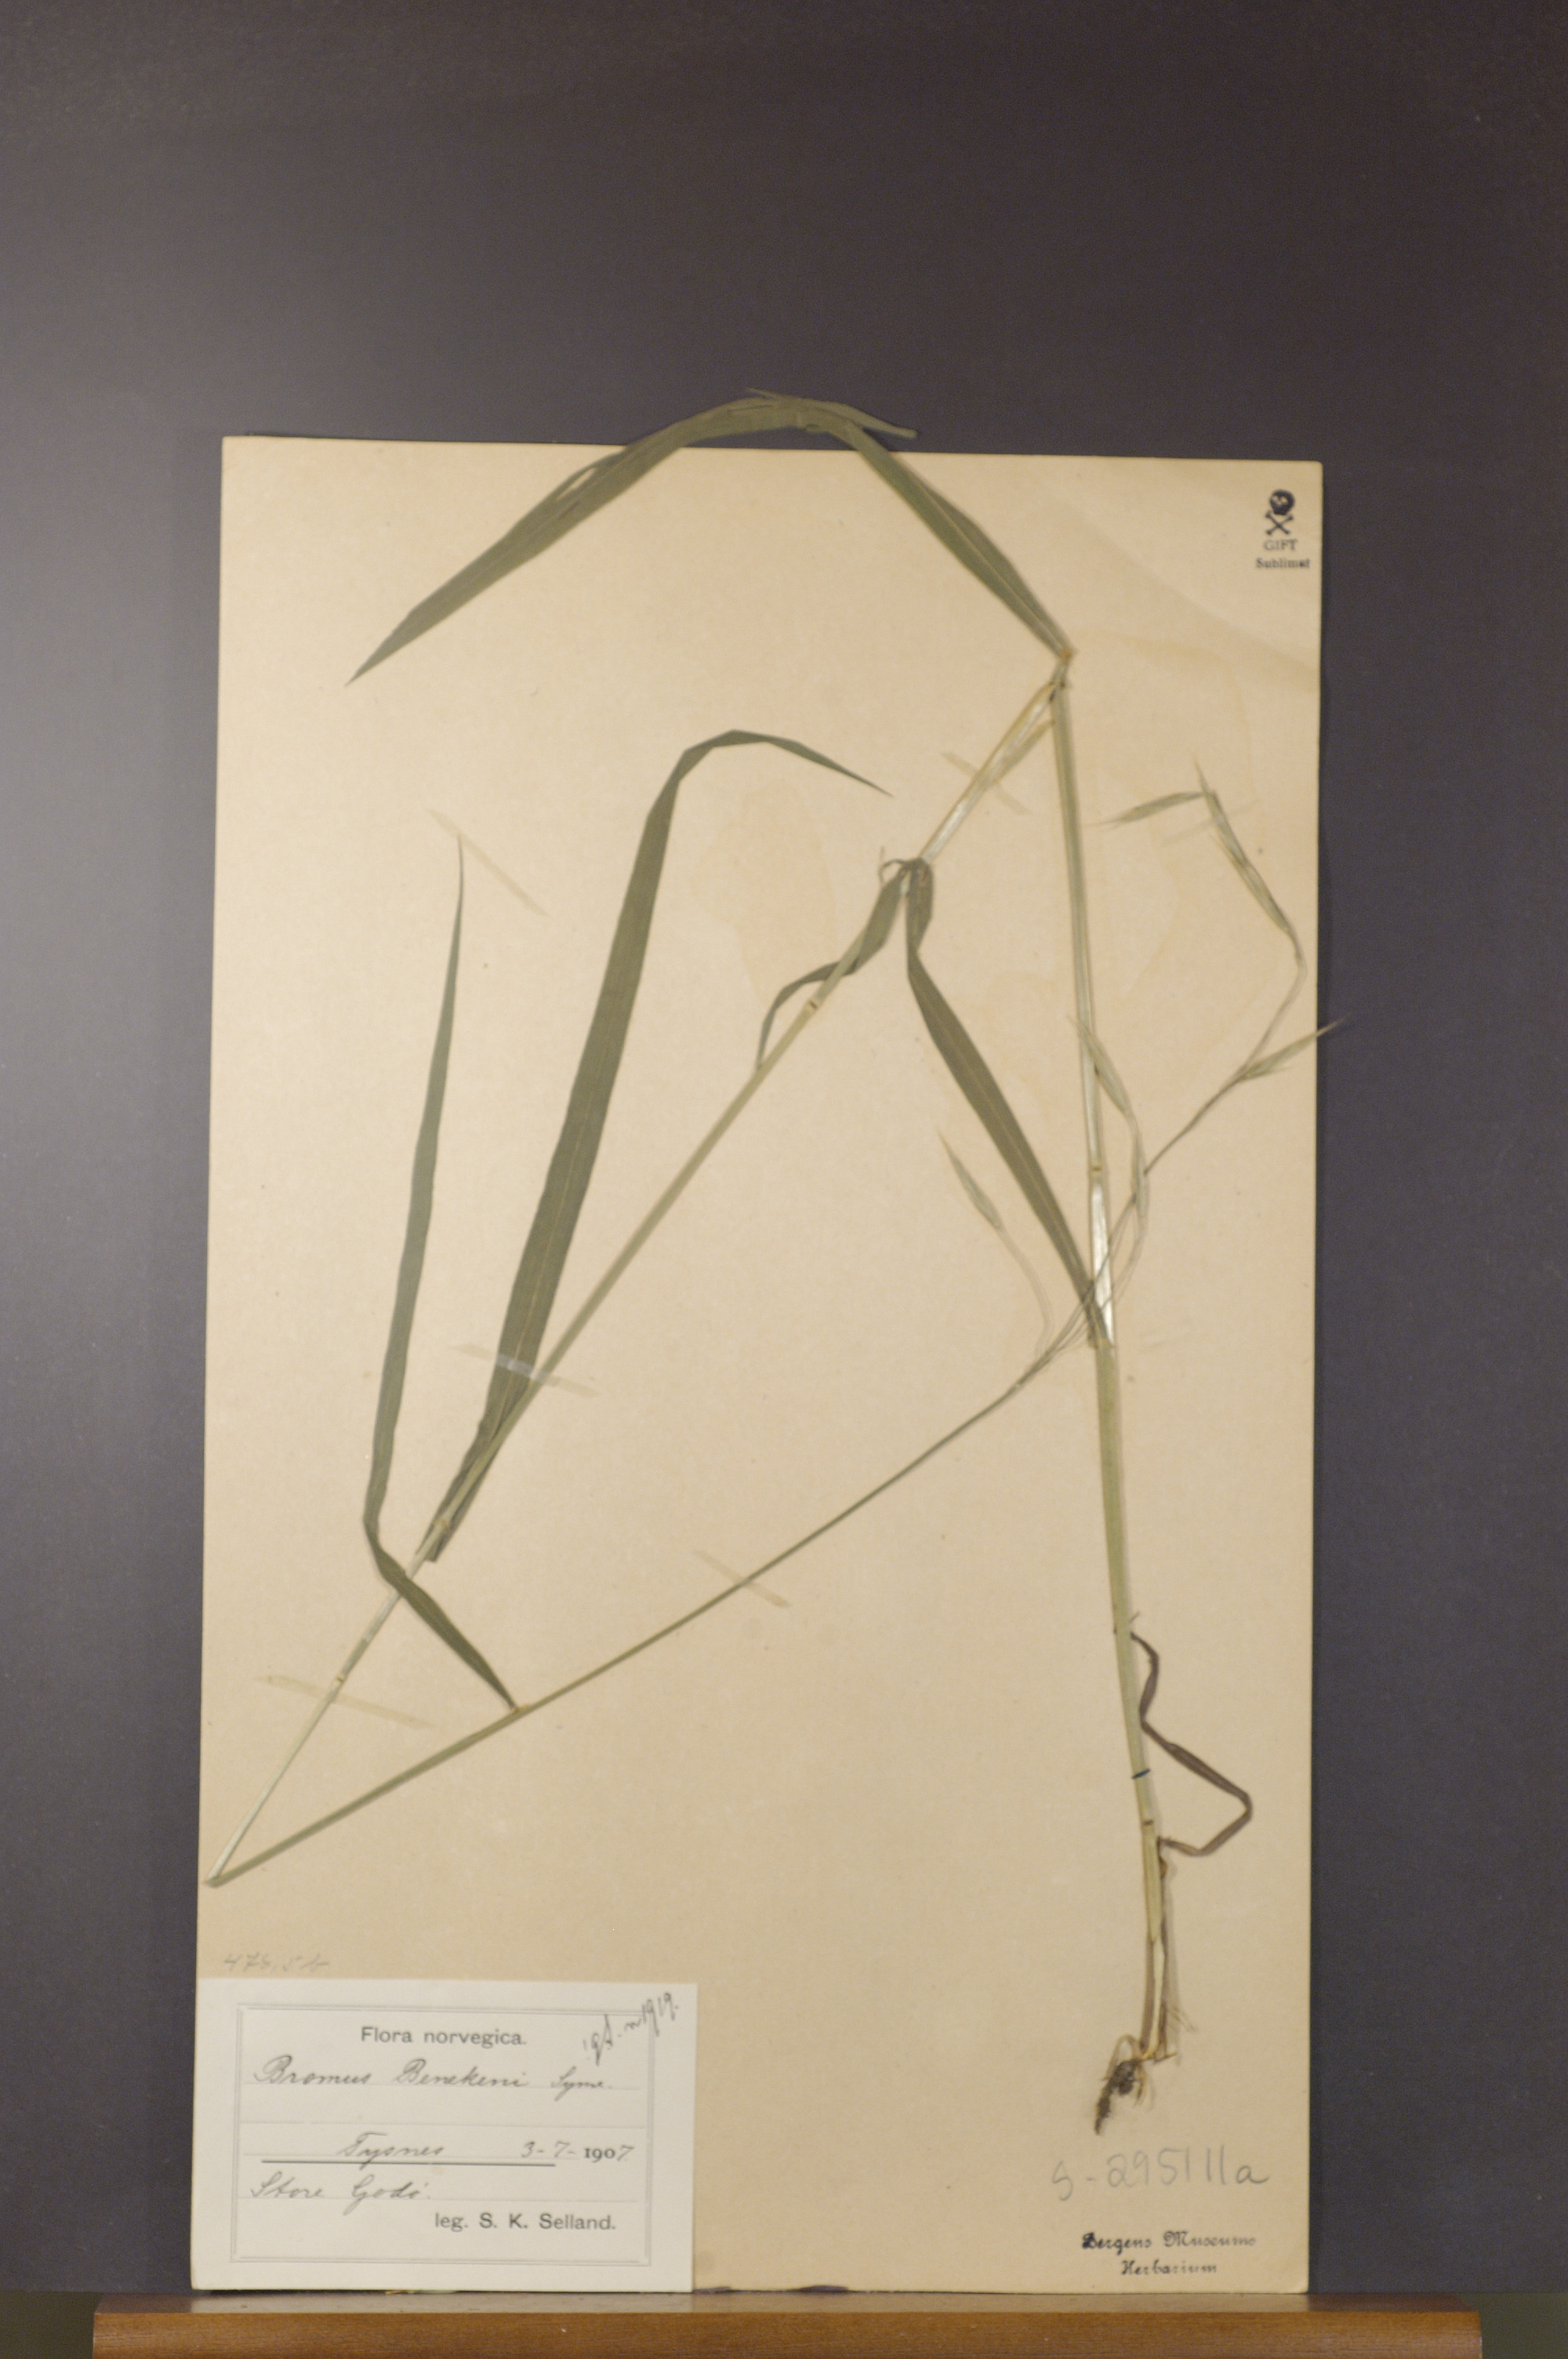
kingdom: Plantae
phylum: Tracheophyta
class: Liliopsida
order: Poales
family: Poaceae
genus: Bromus
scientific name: Bromus benekenii
